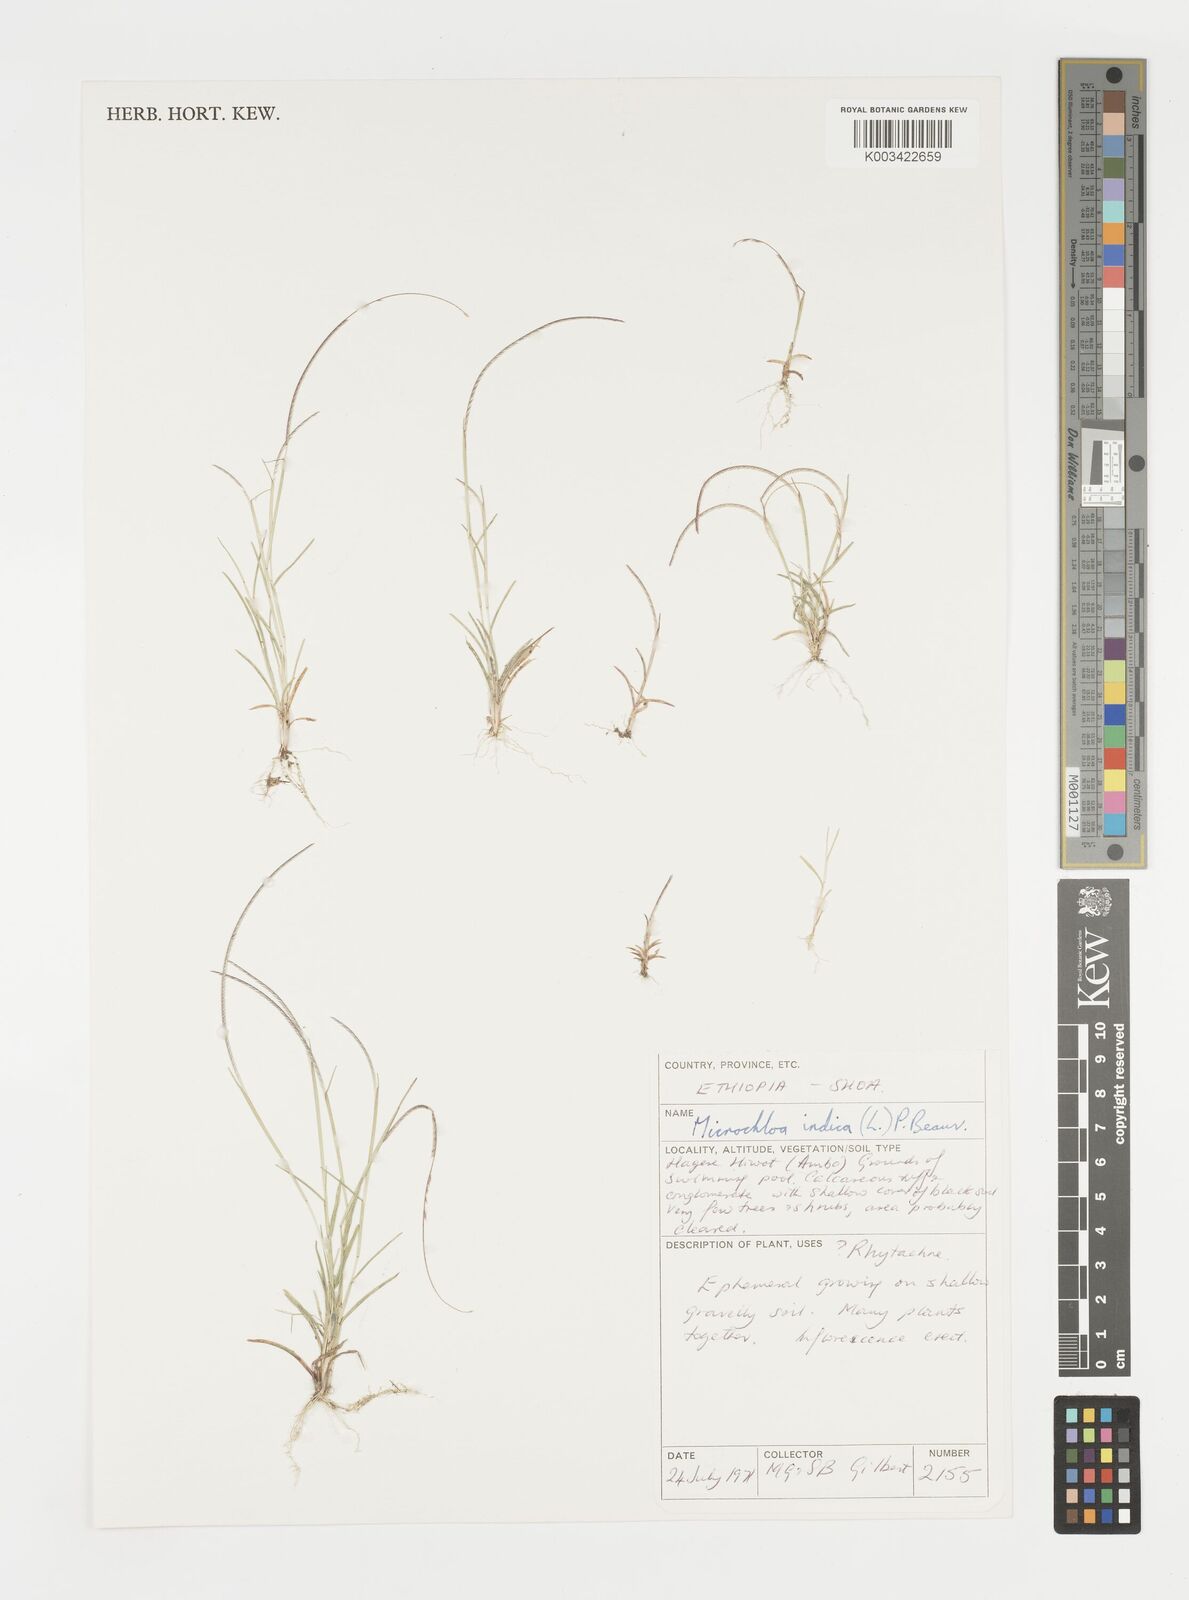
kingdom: Plantae
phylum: Tracheophyta
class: Liliopsida
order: Poales
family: Poaceae
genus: Microchloa
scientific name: Microchloa indica
